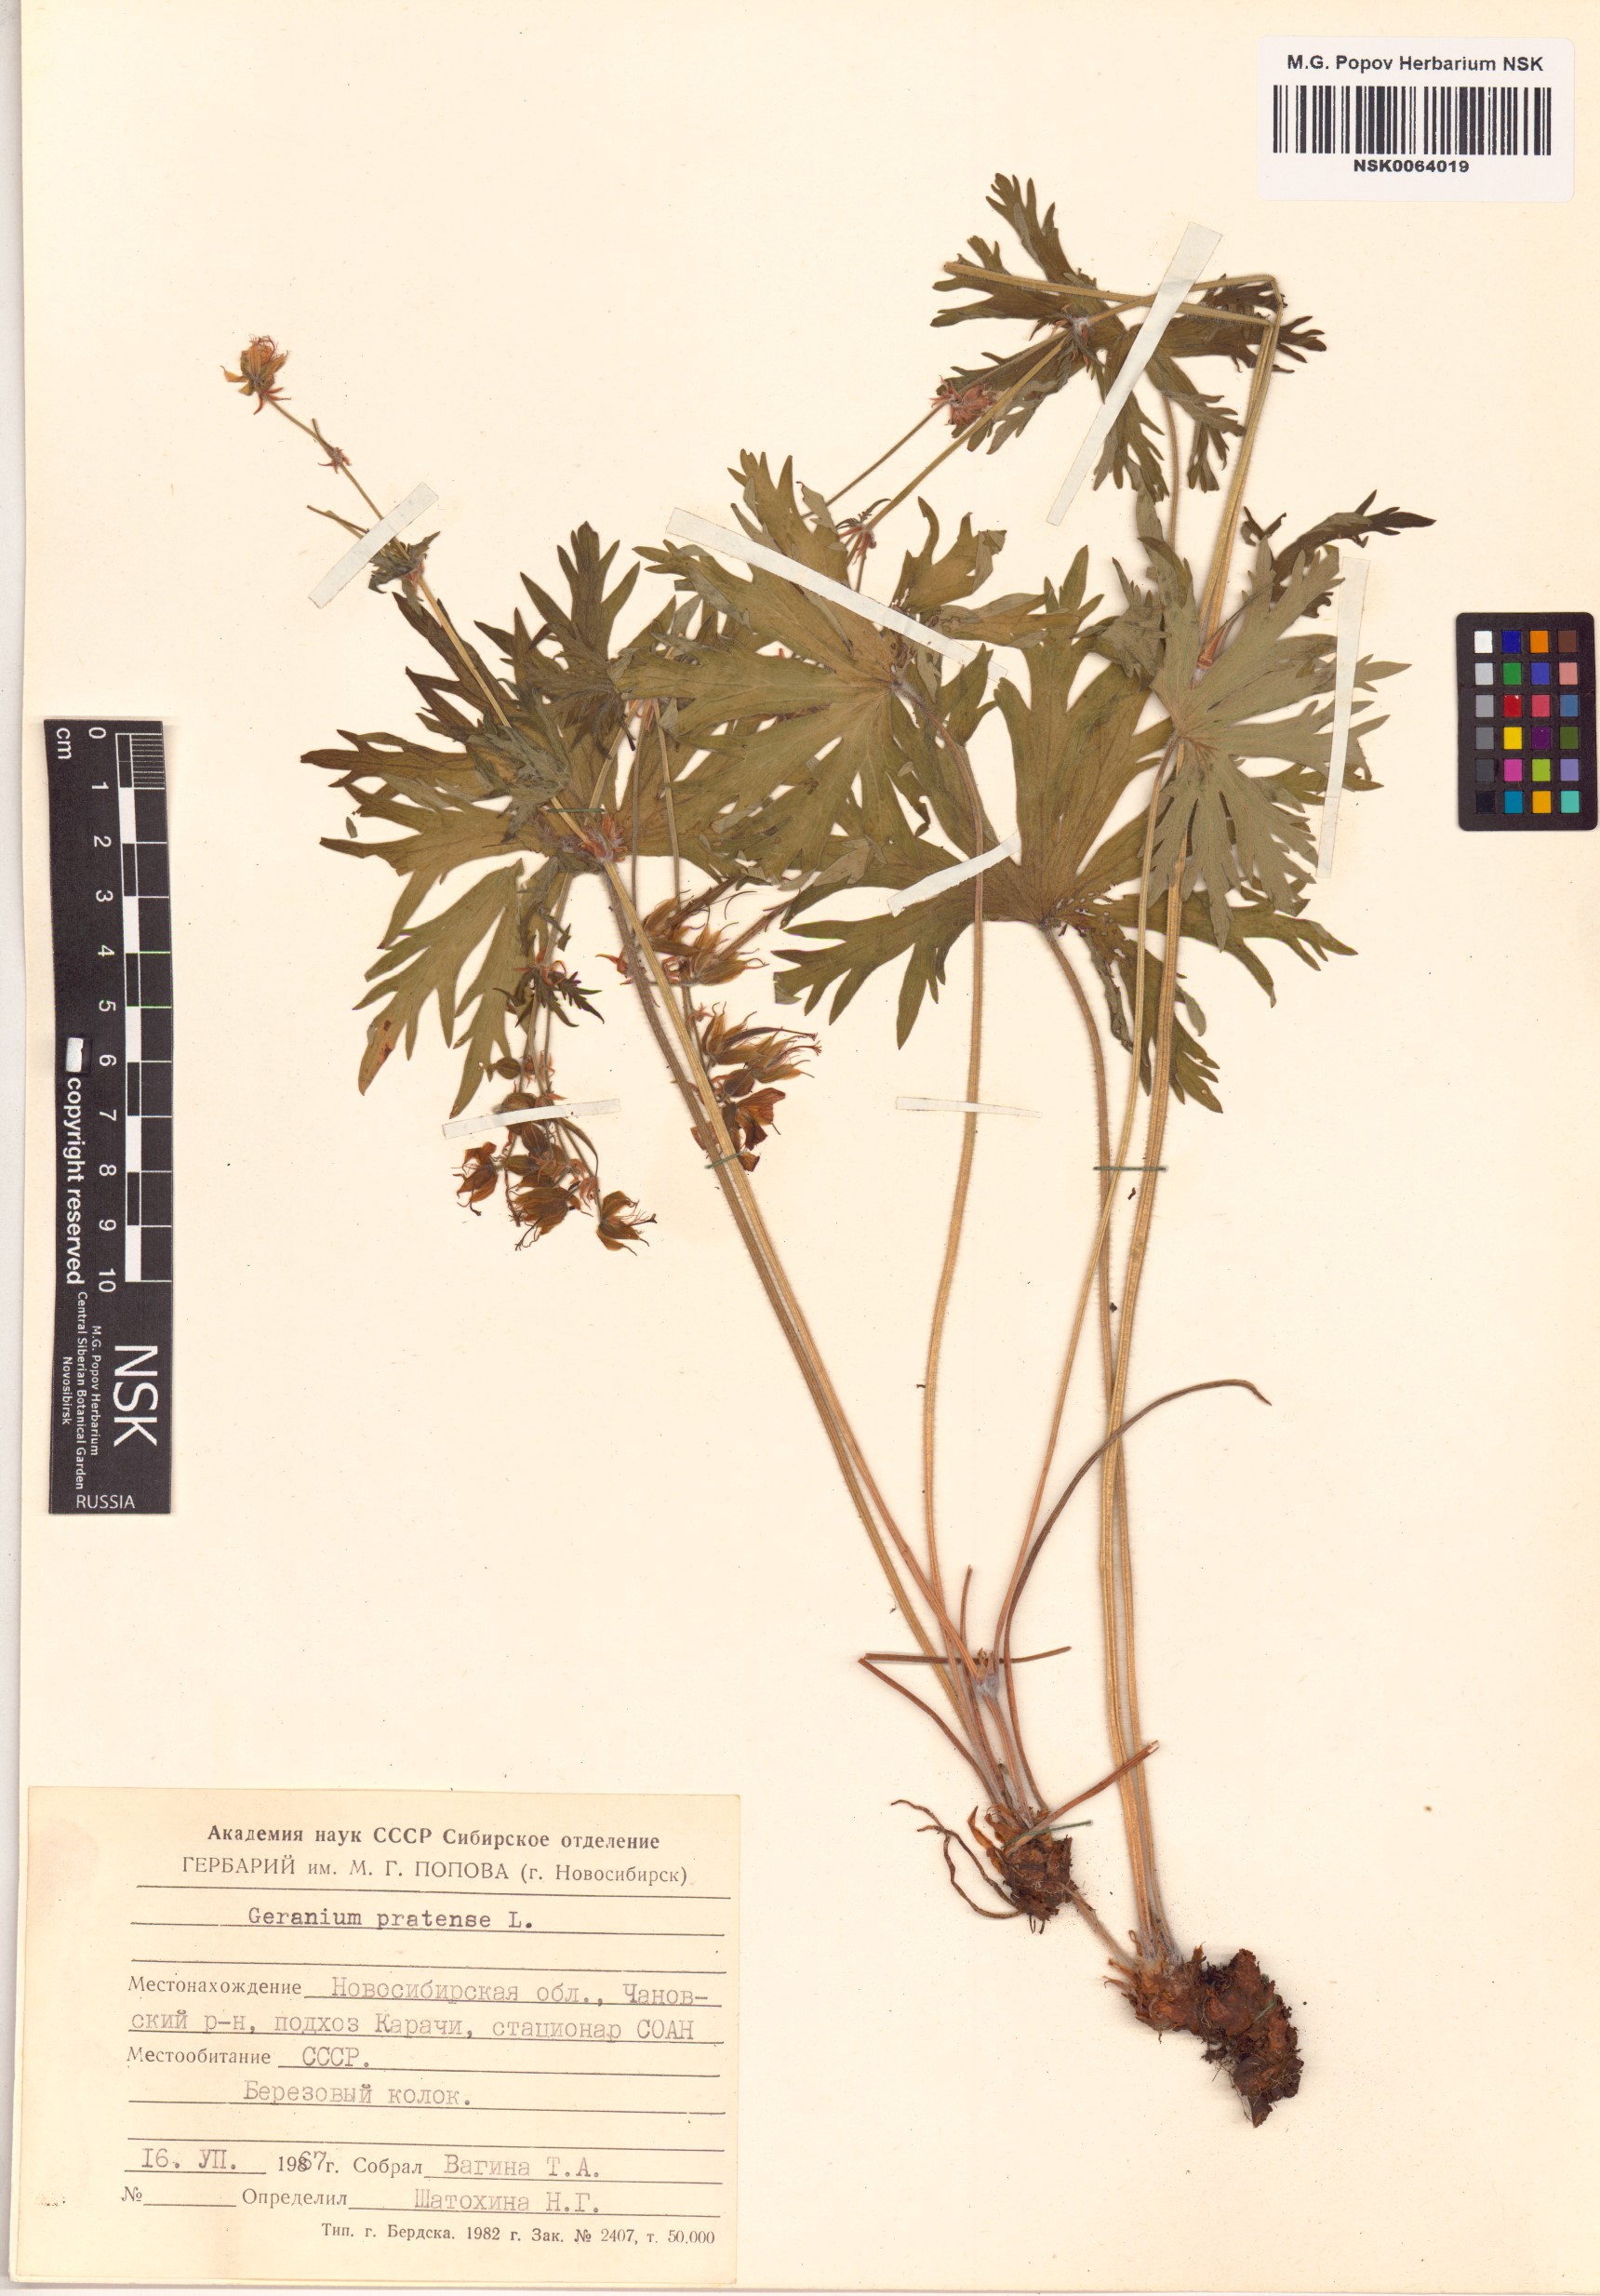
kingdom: Plantae
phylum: Tracheophyta
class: Magnoliopsida
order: Geraniales
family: Geraniaceae
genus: Geranium
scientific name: Geranium pratense
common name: Meadow crane's-bill
